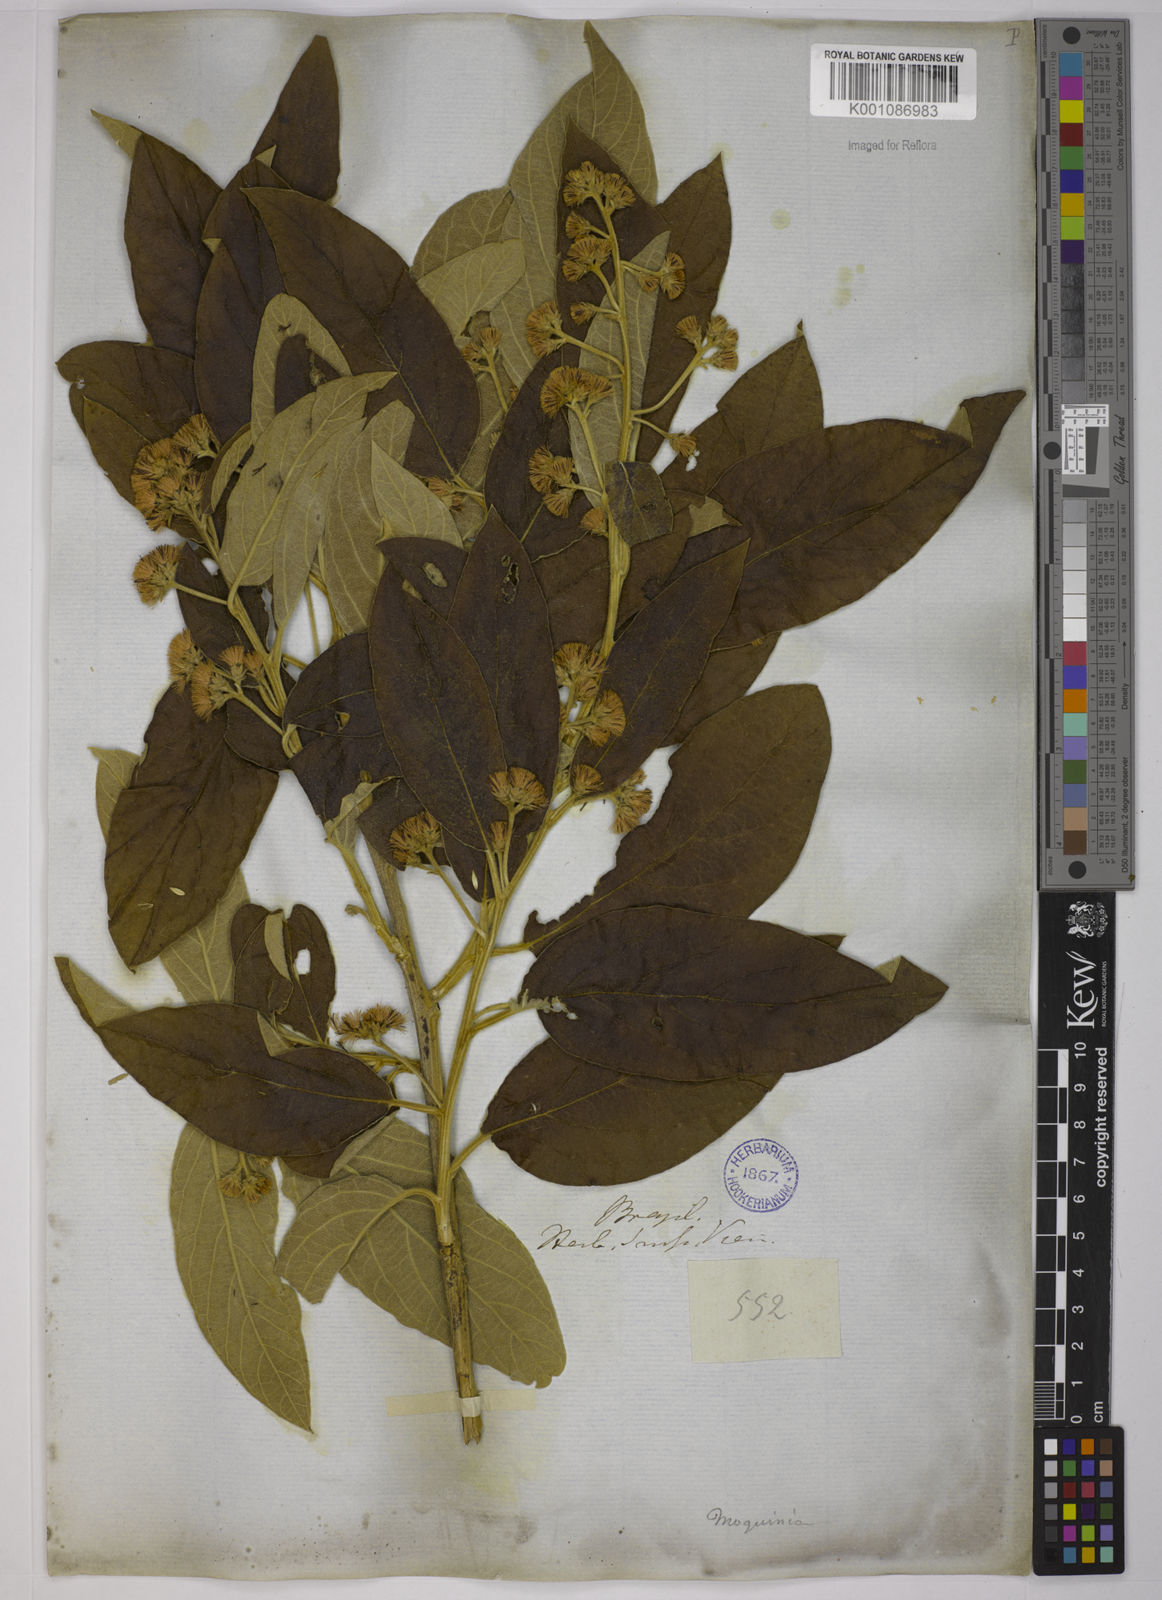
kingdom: Plantae
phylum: Tracheophyta
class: Magnoliopsida
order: Asterales
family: Asteraceae
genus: Moquiniastrum
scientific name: Moquiniastrum polymorphum
